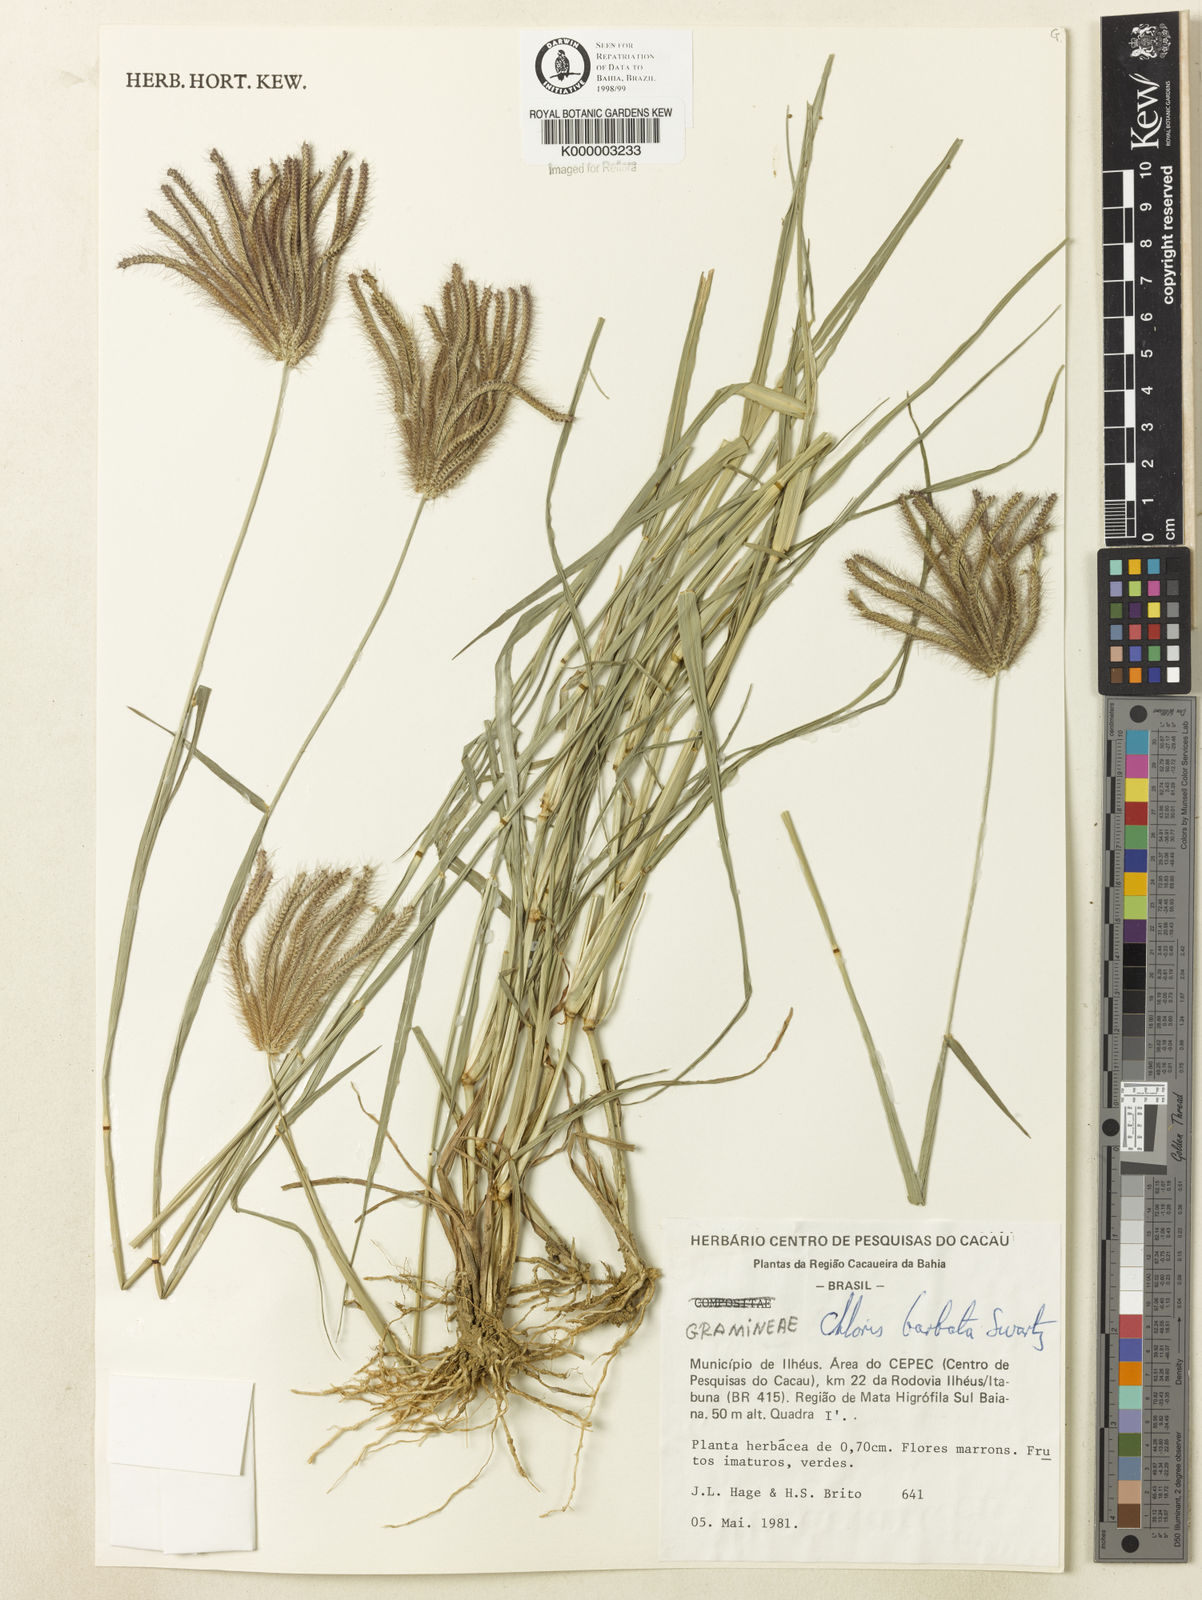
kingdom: Plantae
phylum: Tracheophyta
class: Liliopsida
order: Poales
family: Poaceae
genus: Chloris
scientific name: Chloris
